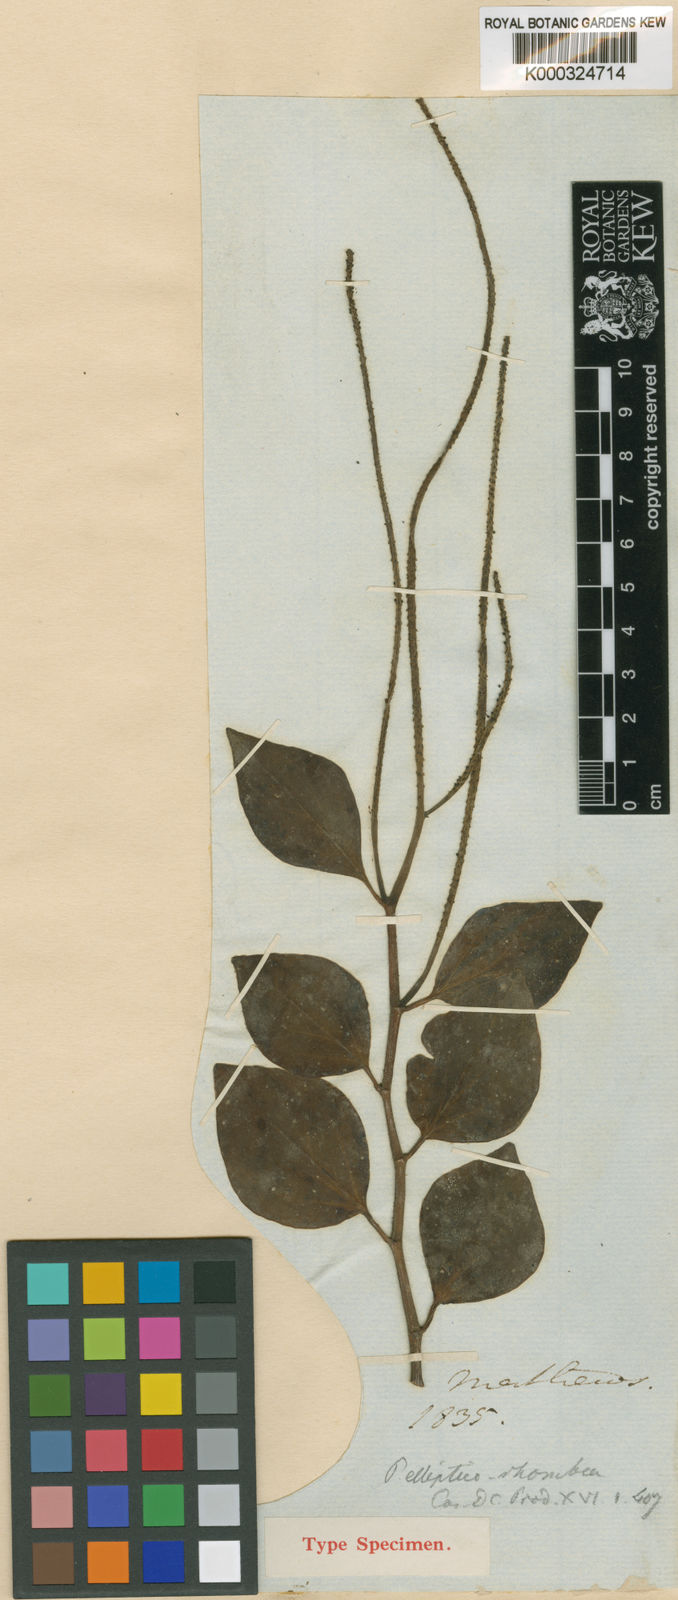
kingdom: Plantae
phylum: Tracheophyta
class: Magnoliopsida
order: Piperales
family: Piperaceae
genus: Peperomia
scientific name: Peperomia ellipticorhombea
